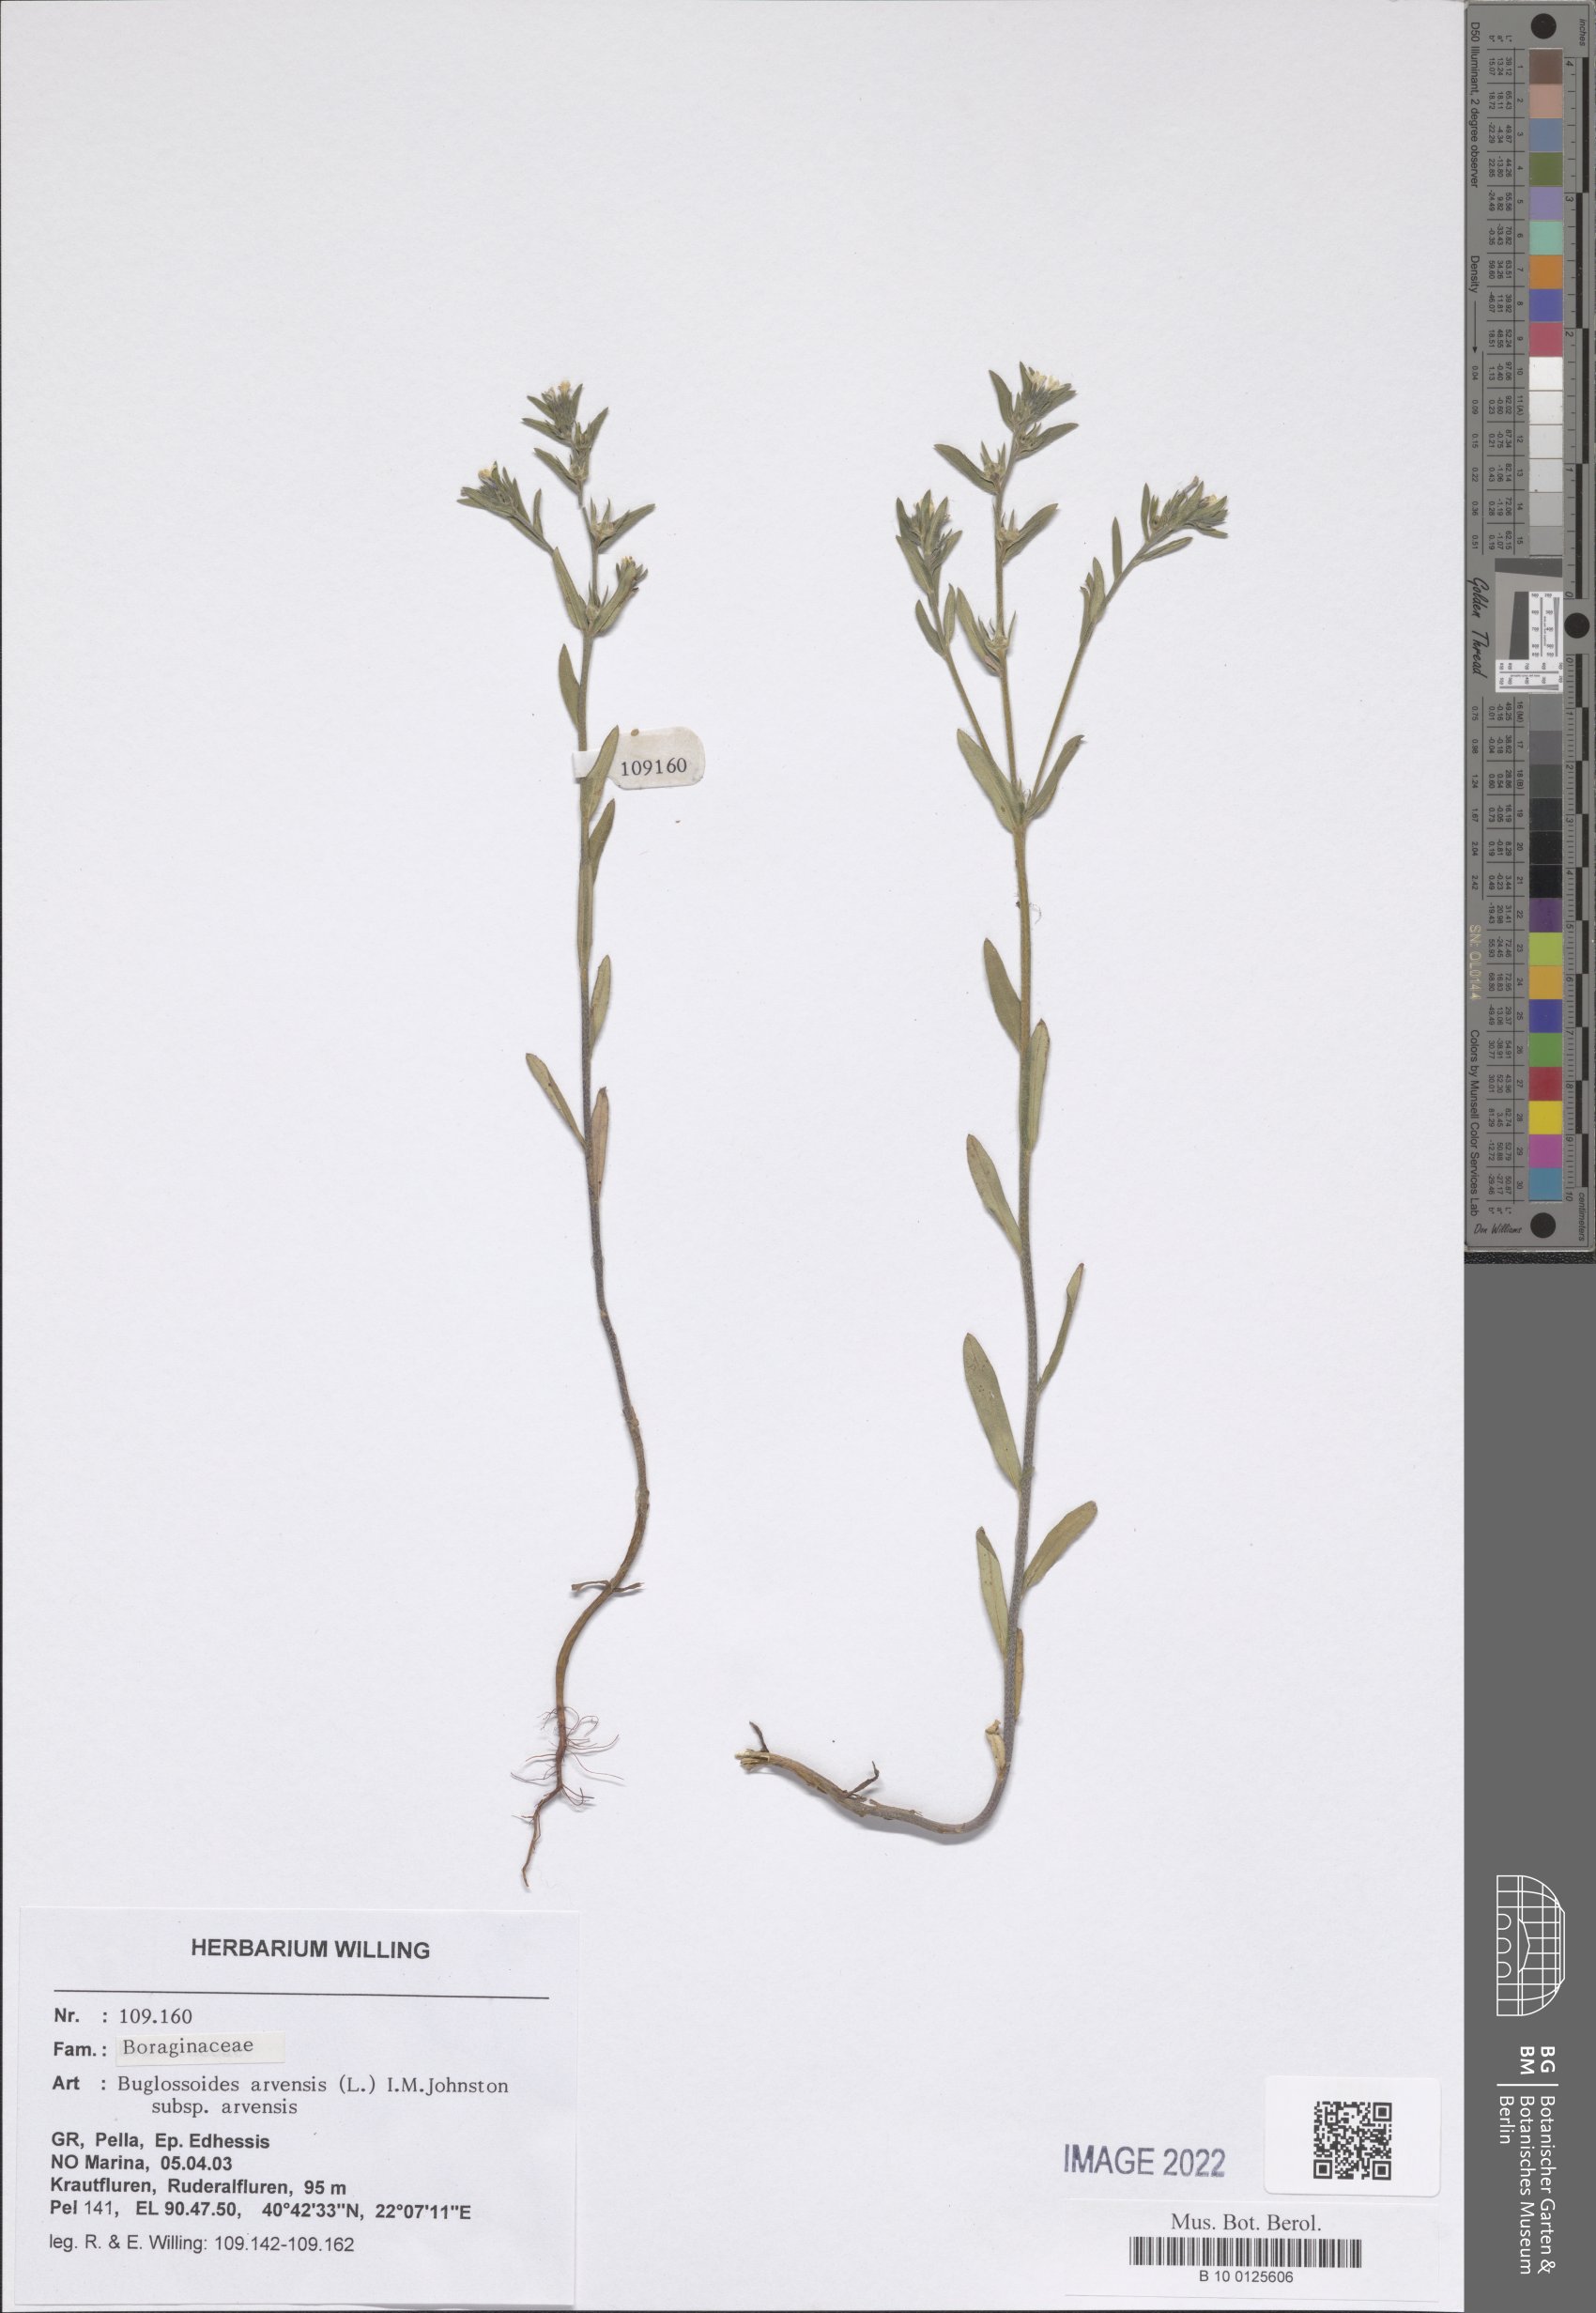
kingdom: Plantae
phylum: Tracheophyta
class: Magnoliopsida
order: Boraginales
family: Boraginaceae
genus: Buglossoides
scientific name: Buglossoides arvensis
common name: Corn gromwell
